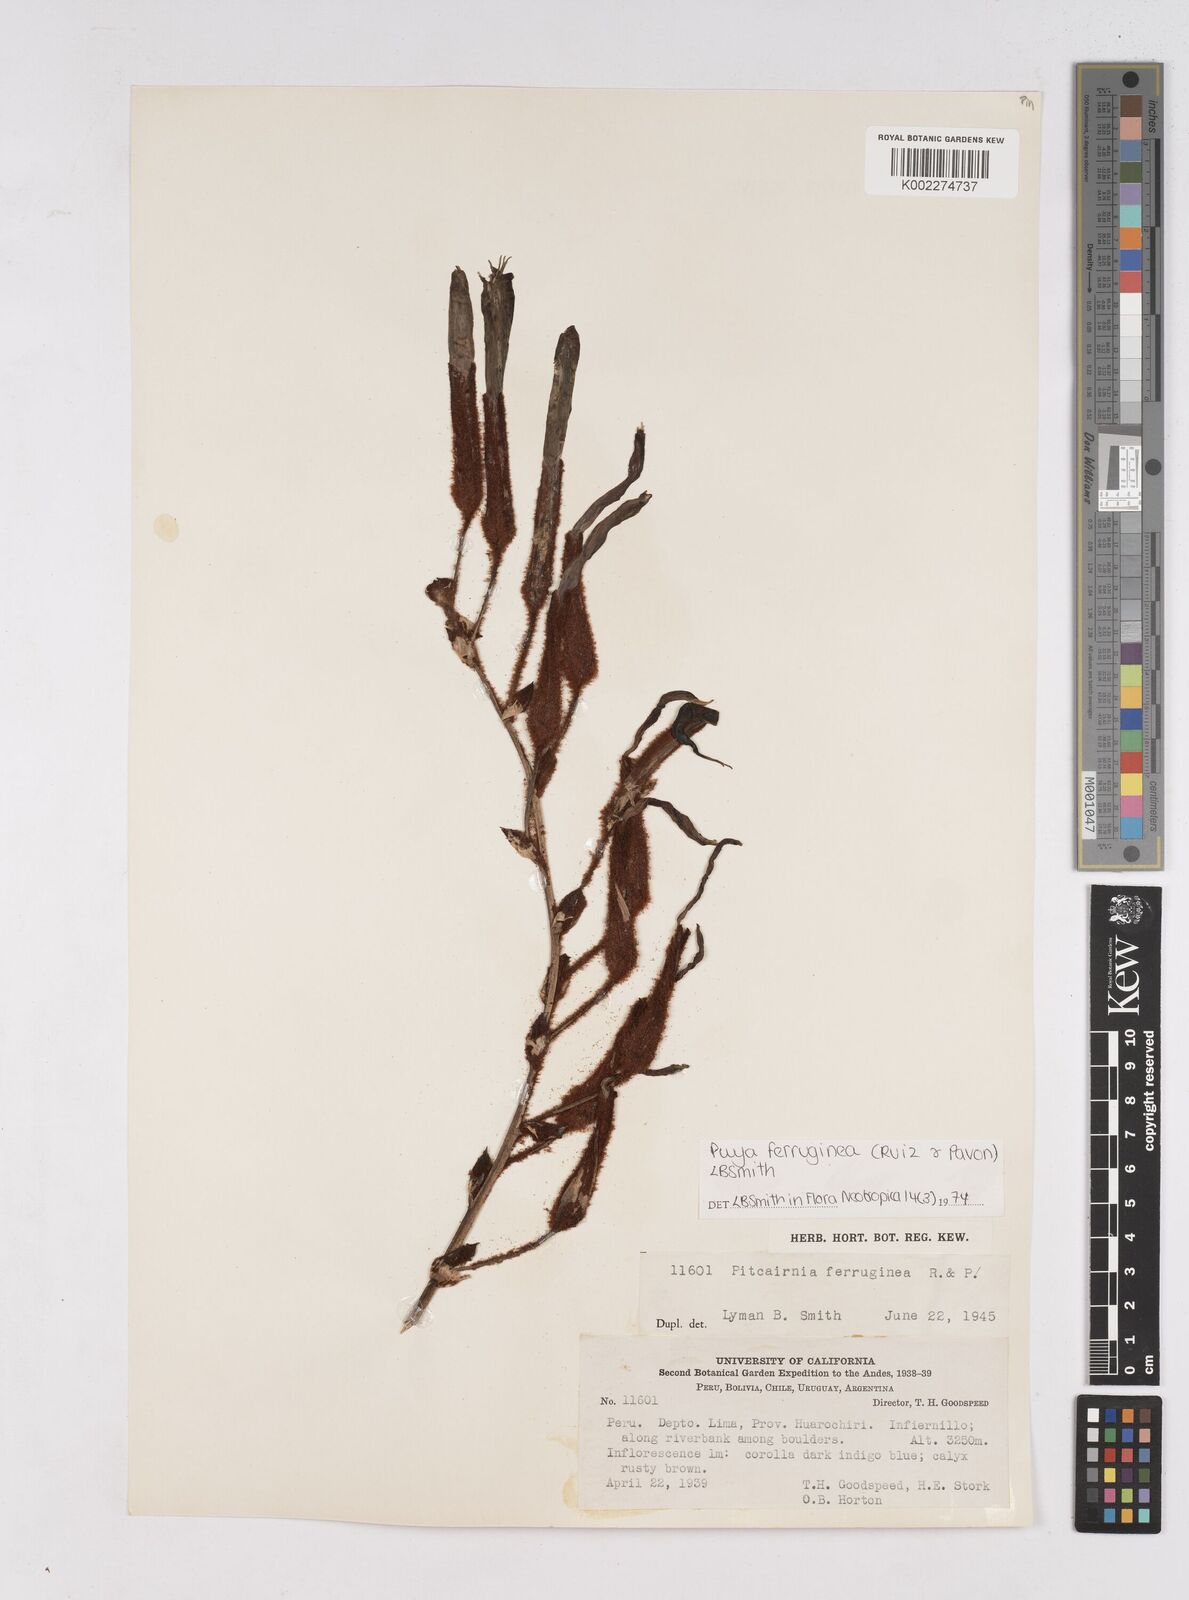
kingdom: Plantae
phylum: Tracheophyta
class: Liliopsida
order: Poales
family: Bromeliaceae
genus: Puya
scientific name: Puya ferruginea
